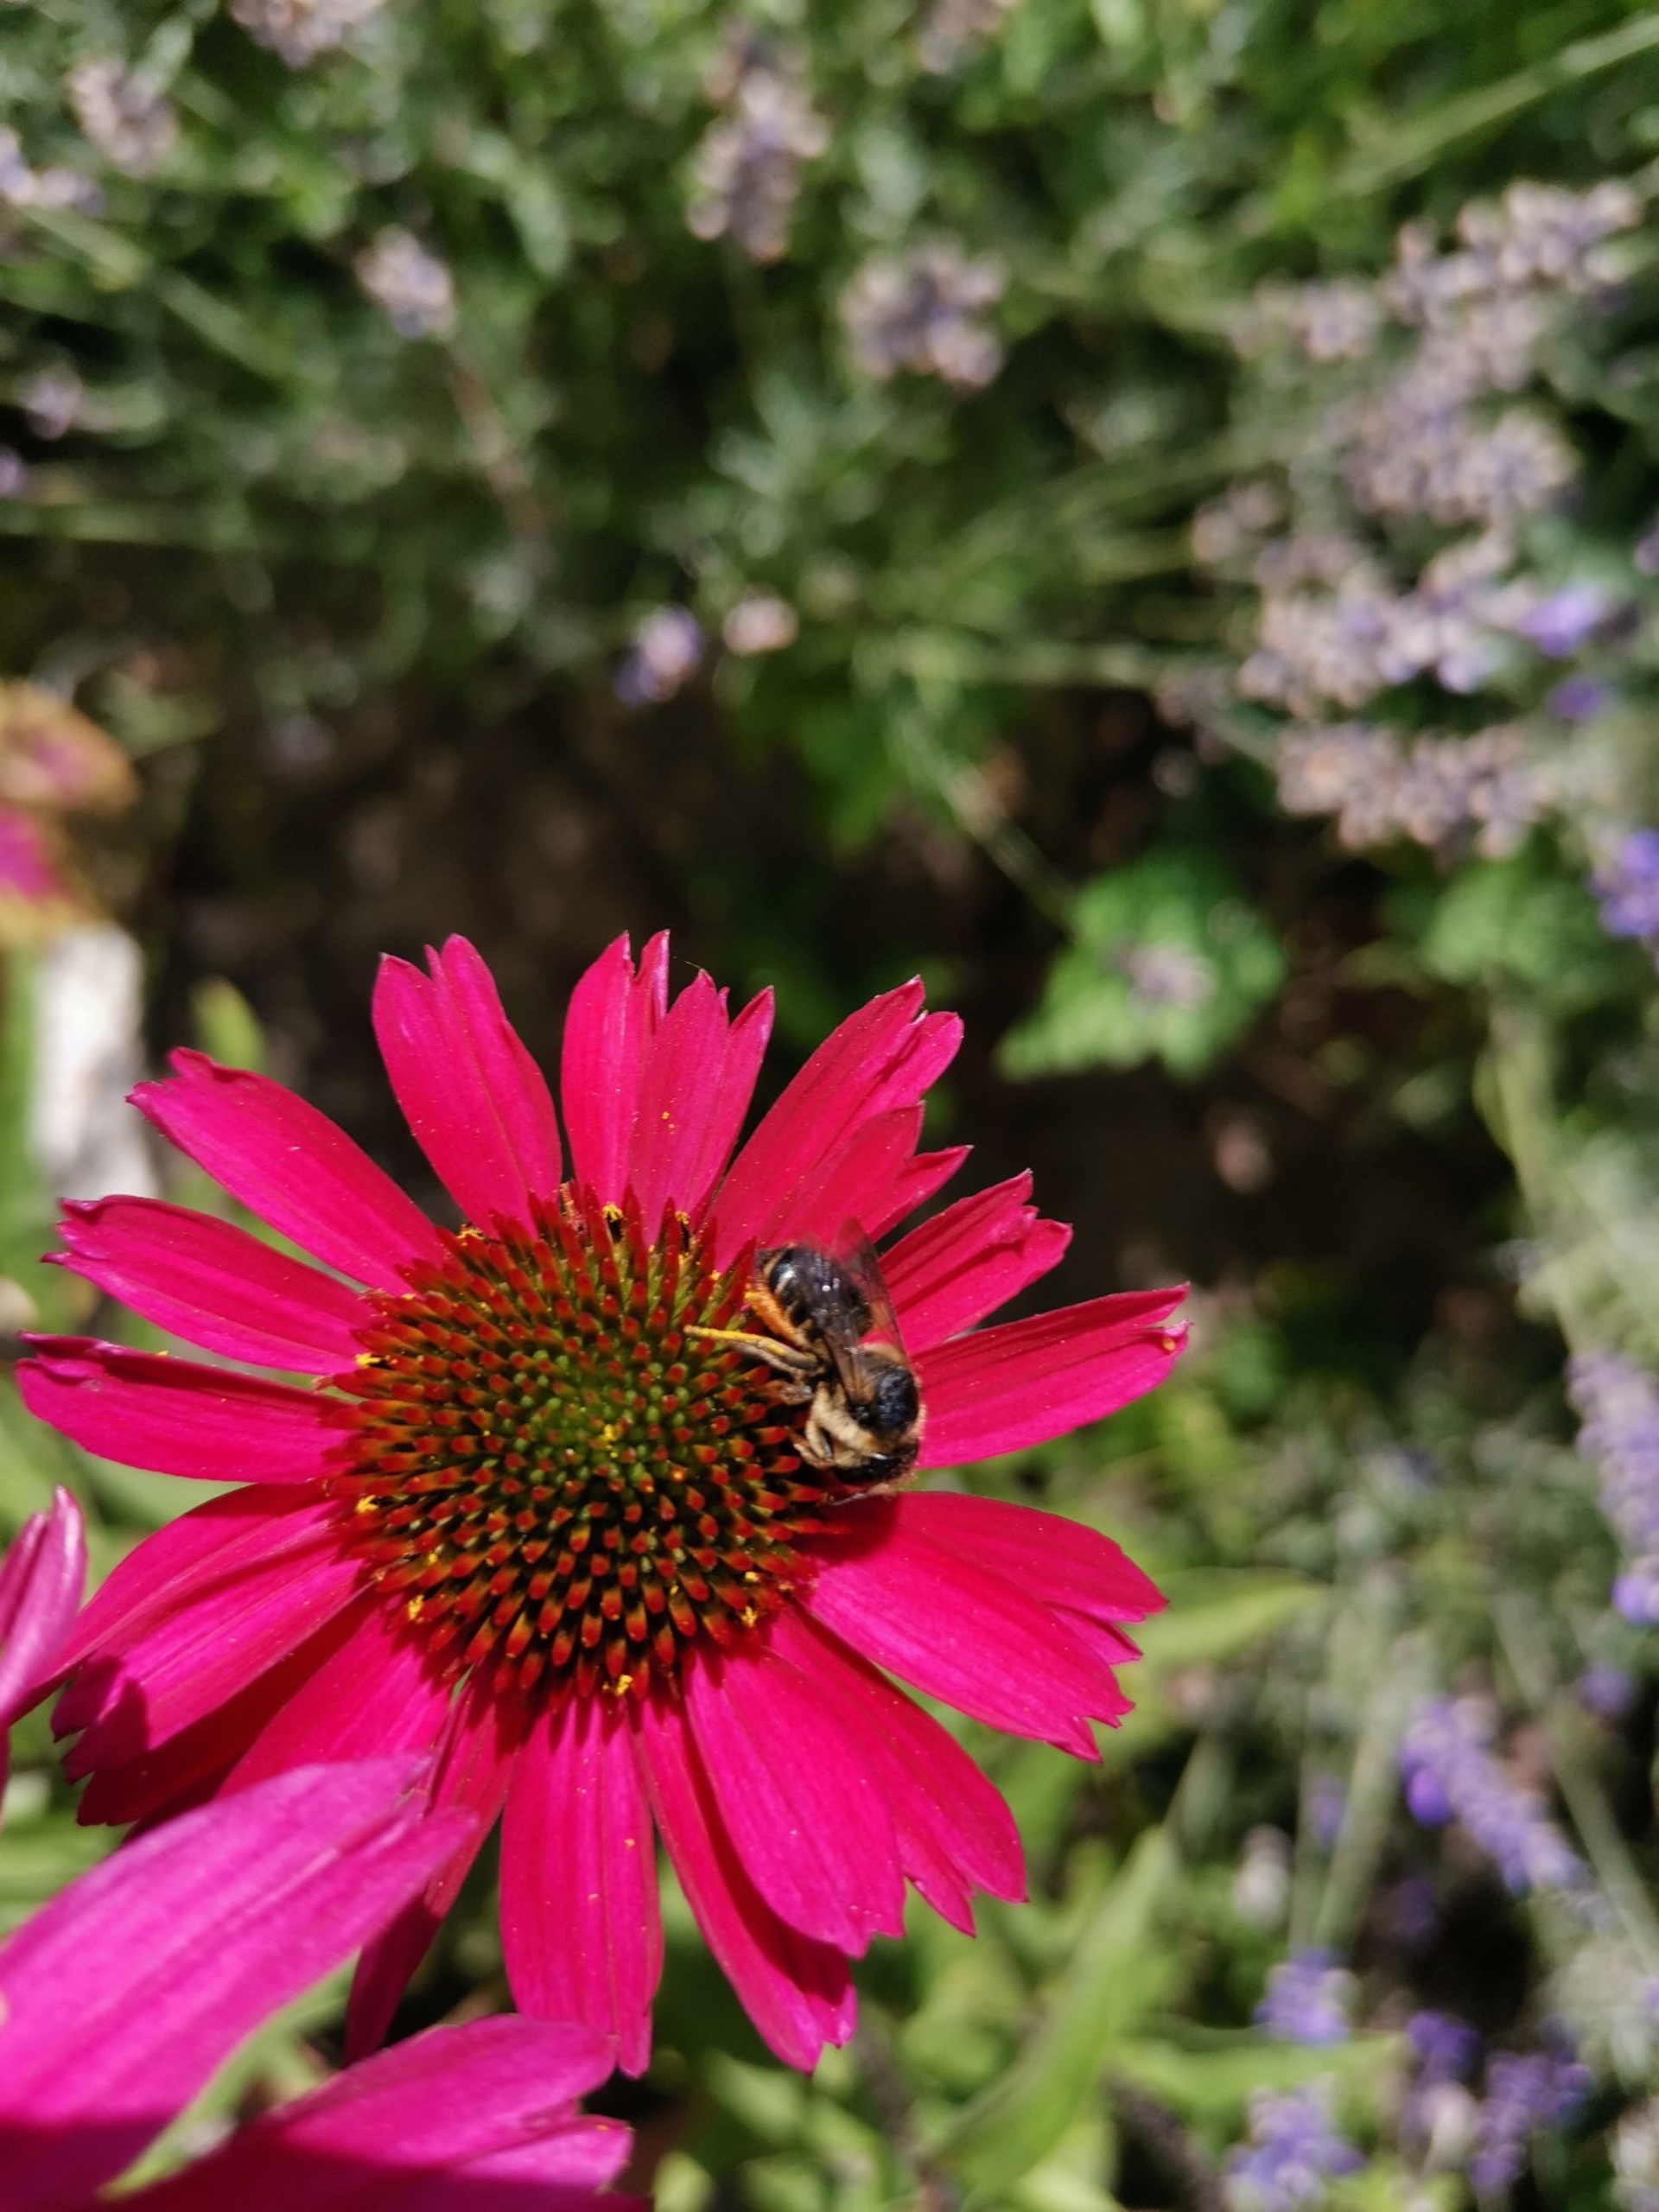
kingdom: Animalia
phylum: Arthropoda
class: Insecta
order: Hymenoptera
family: Megachilidae
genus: Megachile
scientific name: Megachile
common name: Bladskærerbier
